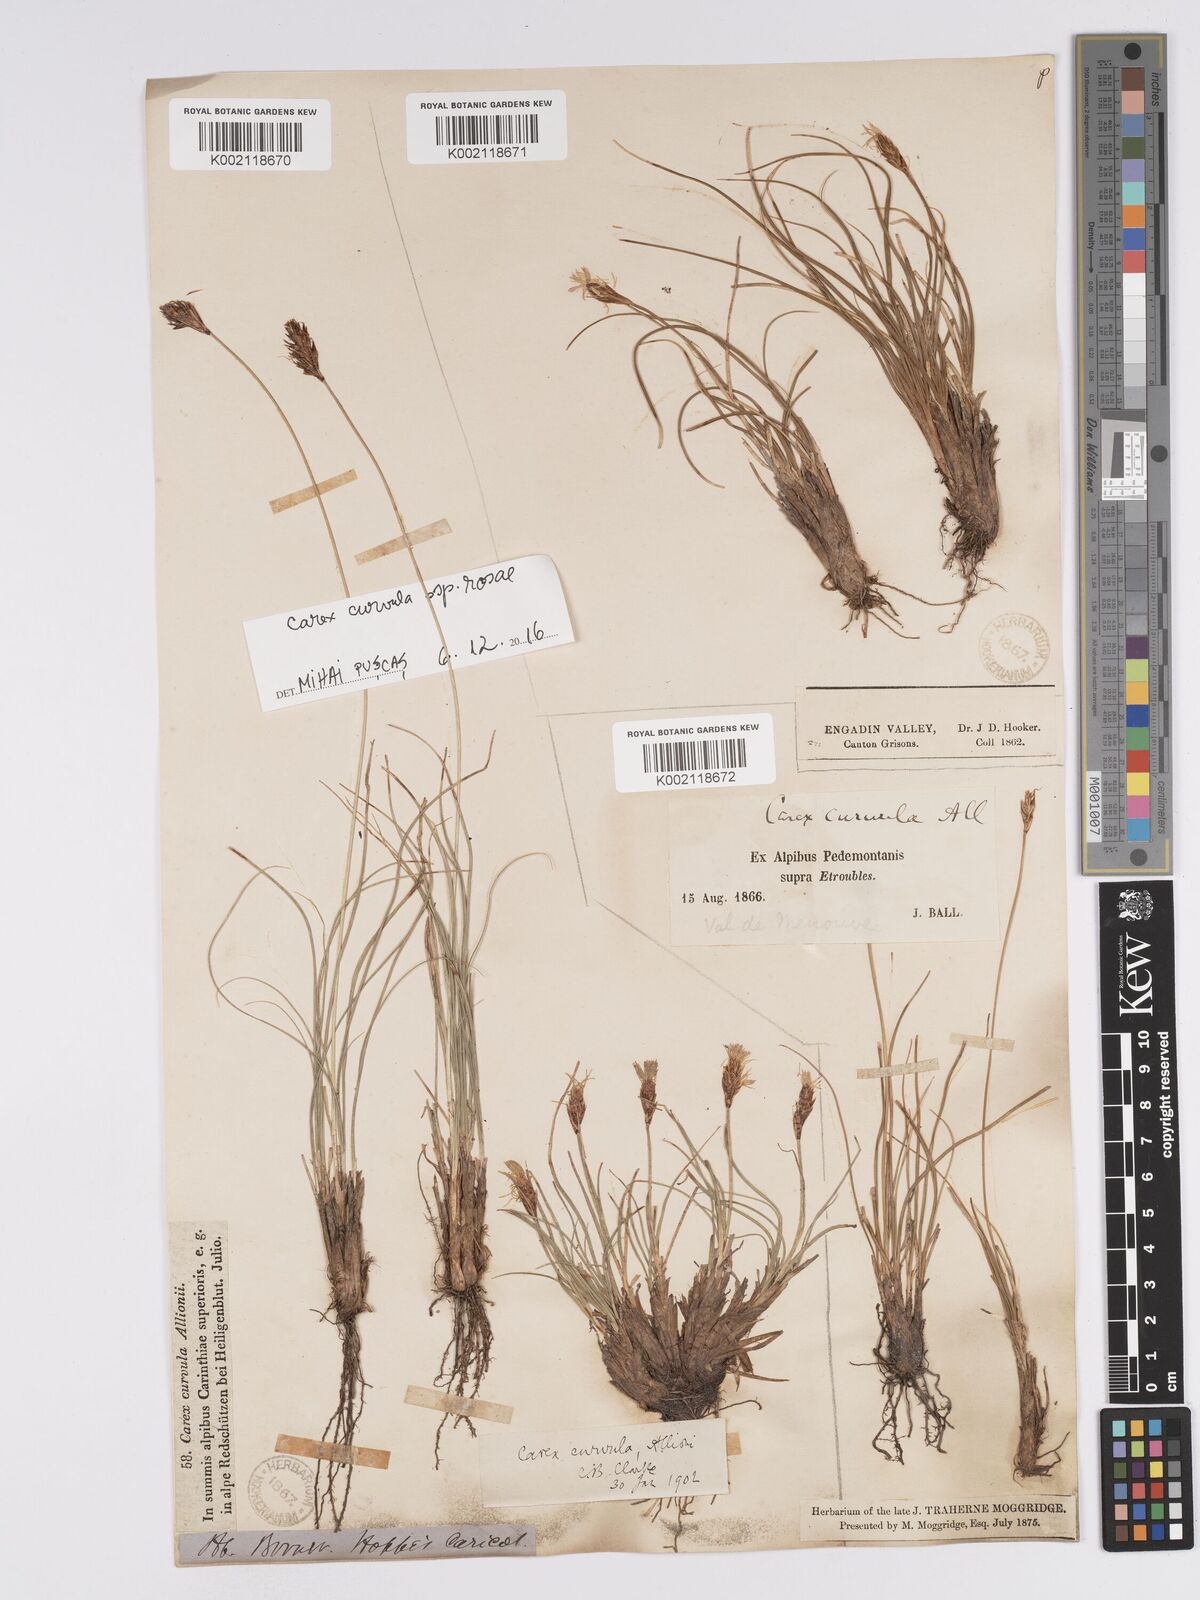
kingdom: Plantae
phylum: Tracheophyta
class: Liliopsida
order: Poales
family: Cyperaceae
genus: Carex
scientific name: Carex curvula
